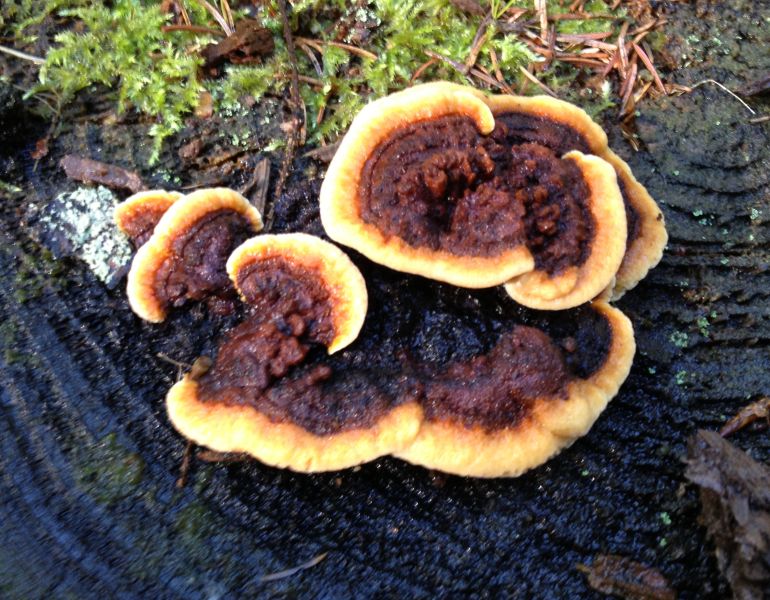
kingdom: Fungi
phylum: Basidiomycota
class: Agaricomycetes
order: Gloeophyllales
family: Gloeophyllaceae
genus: Gloeophyllum
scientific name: Gloeophyllum sepiarium
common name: fyrre-korkhat
